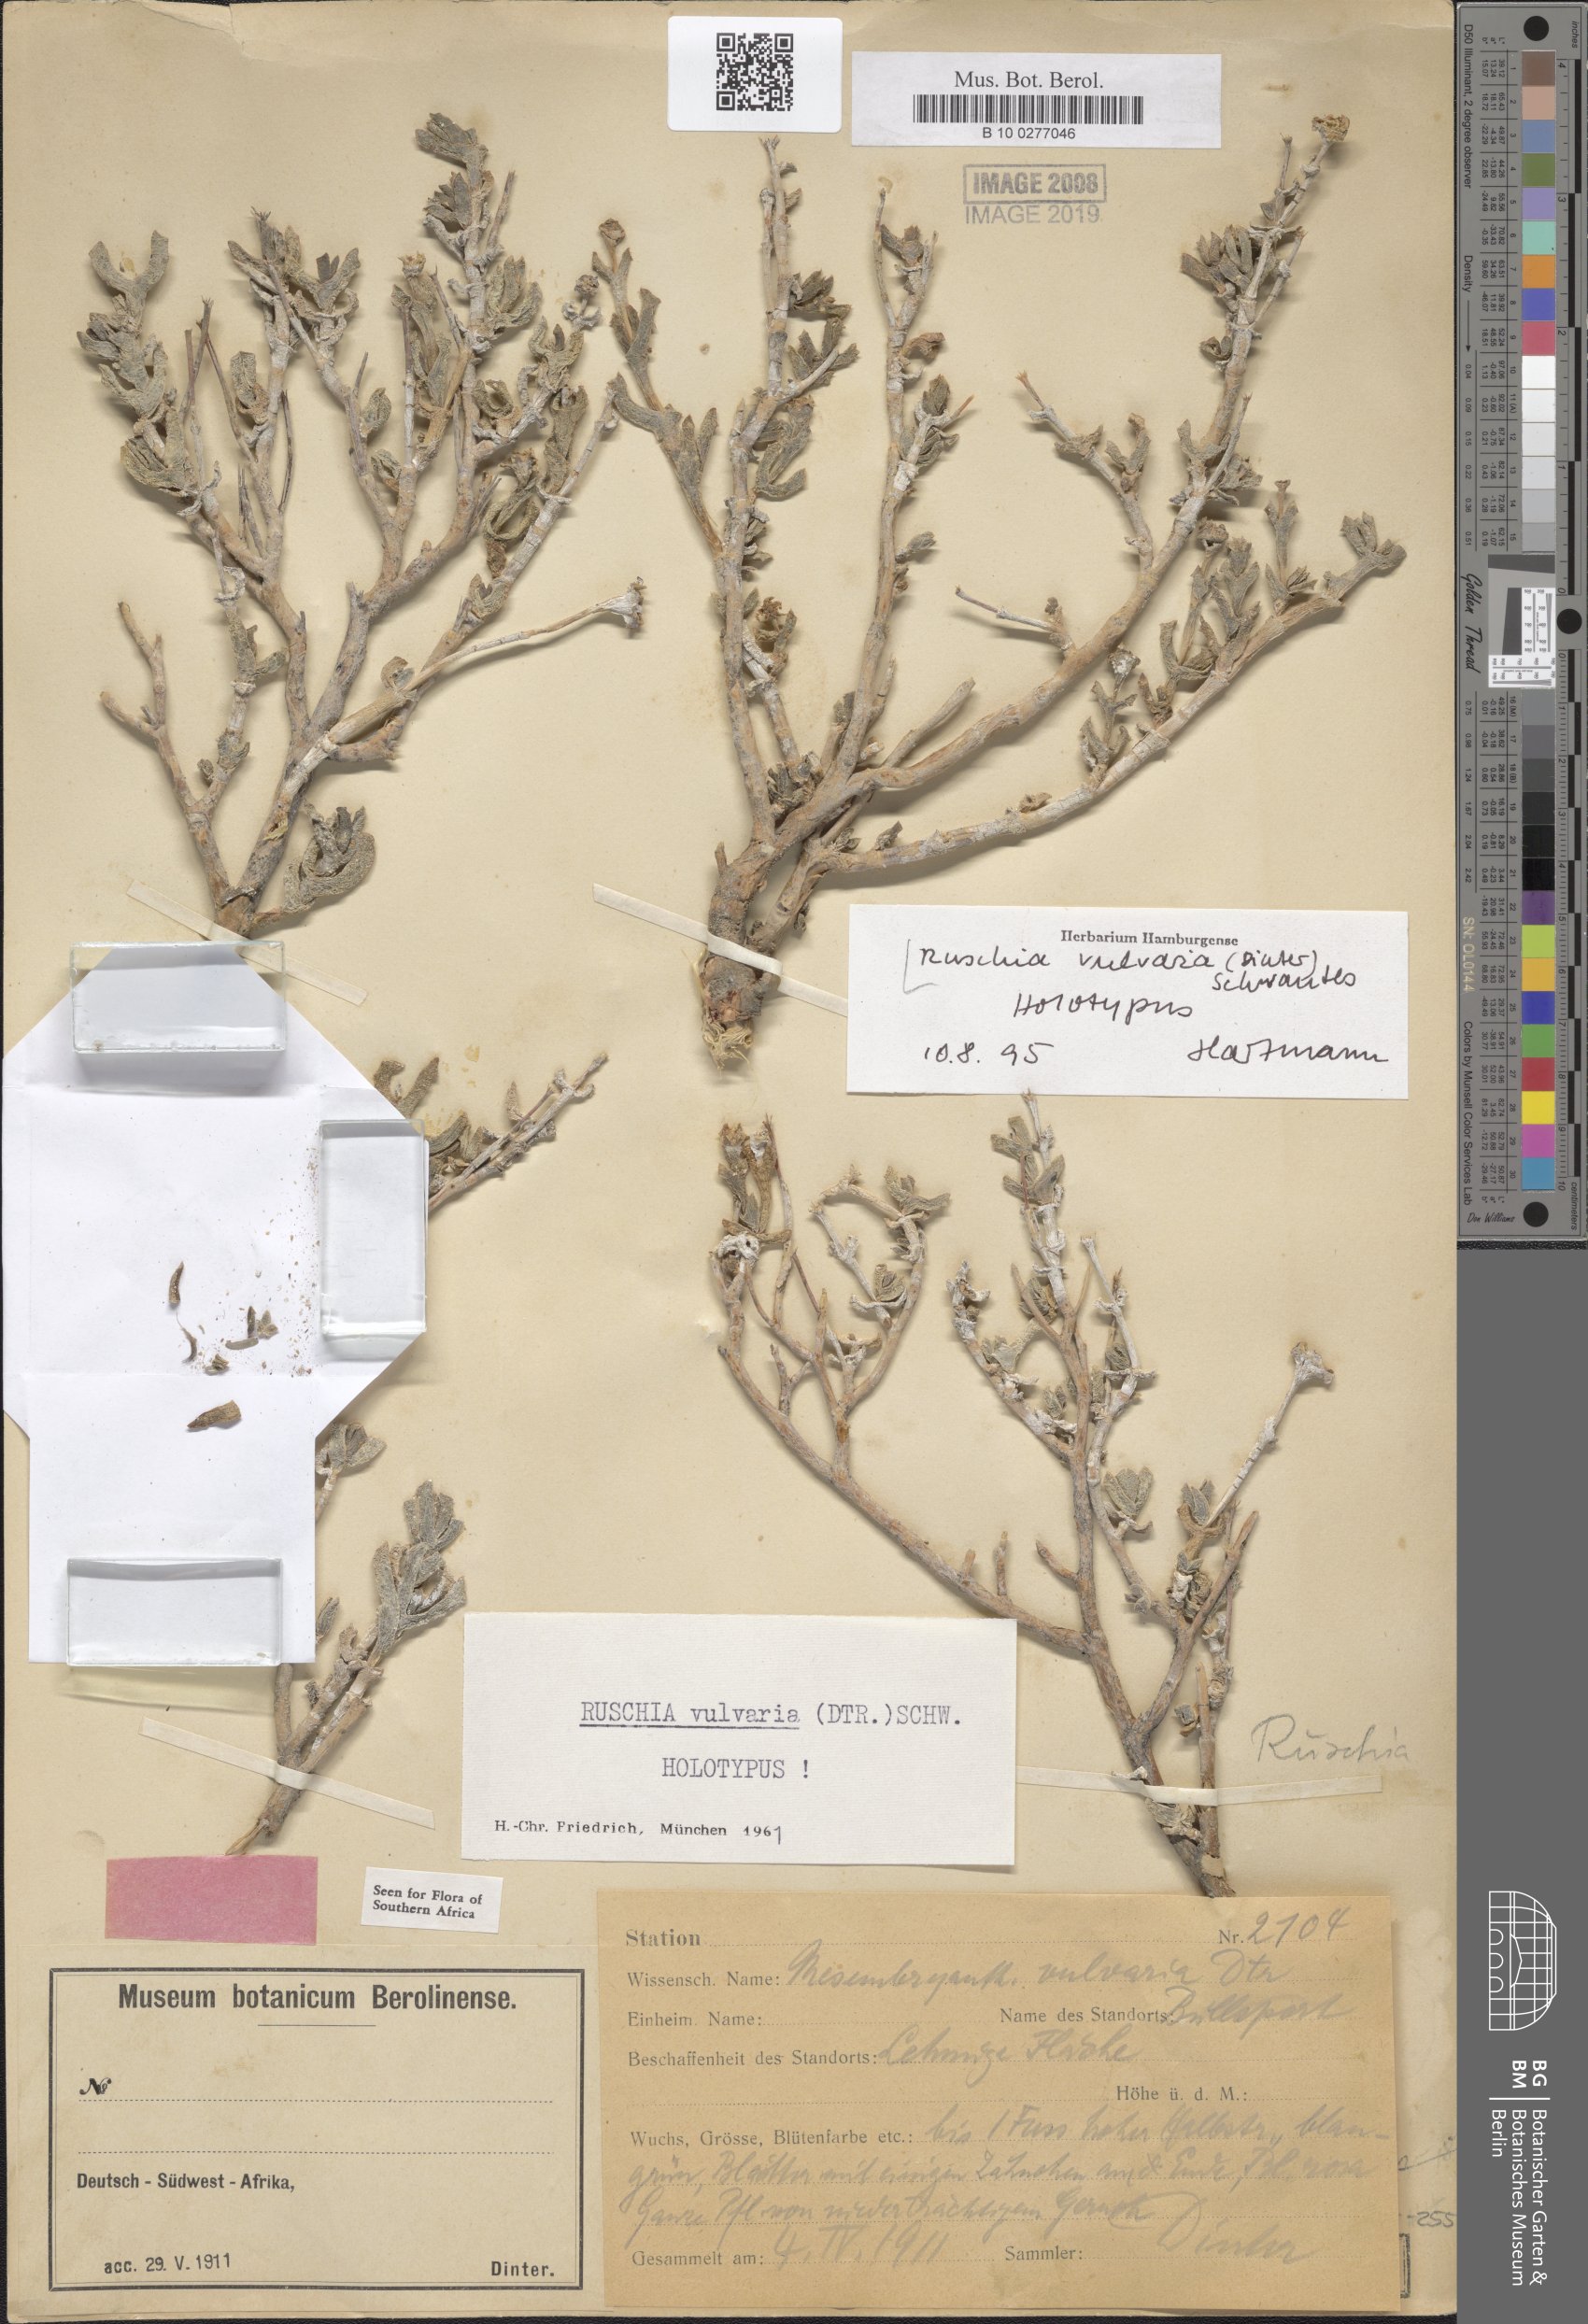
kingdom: Plantae
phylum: Tracheophyta
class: Magnoliopsida
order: Caryophyllales
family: Aizoaceae
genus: Ruschia
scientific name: Ruschia vulvaria
